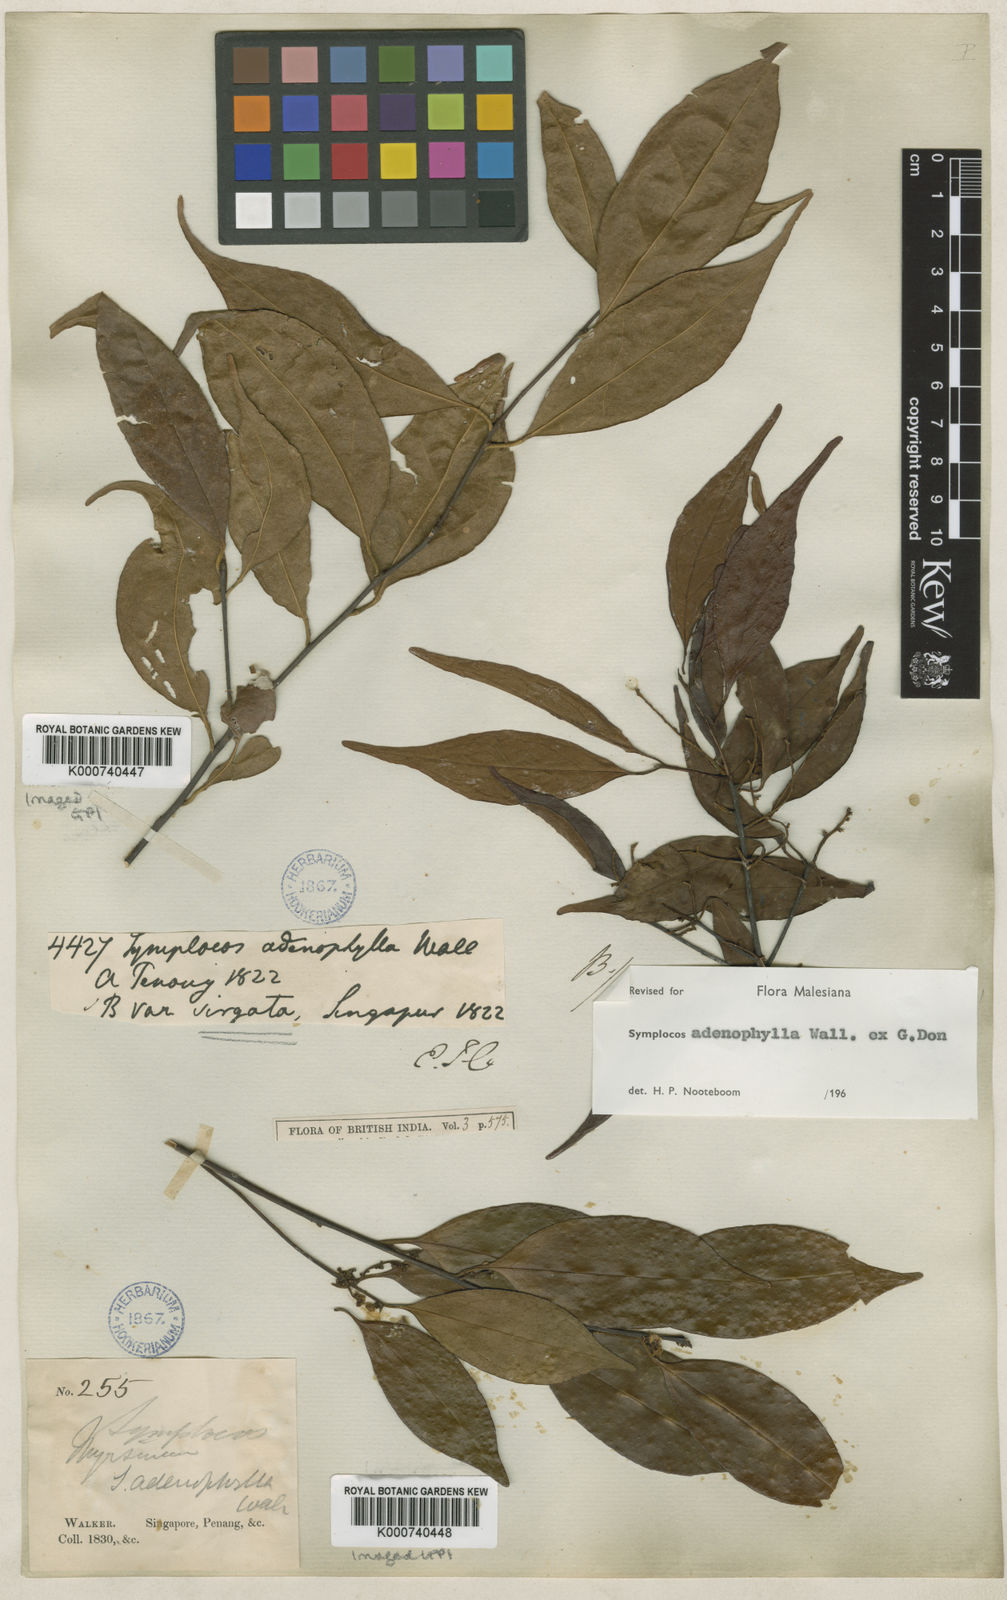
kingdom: Plantae
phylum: Tracheophyta
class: Magnoliopsida
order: Ericales
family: Symplocaceae
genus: Symplocos
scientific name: Symplocos
